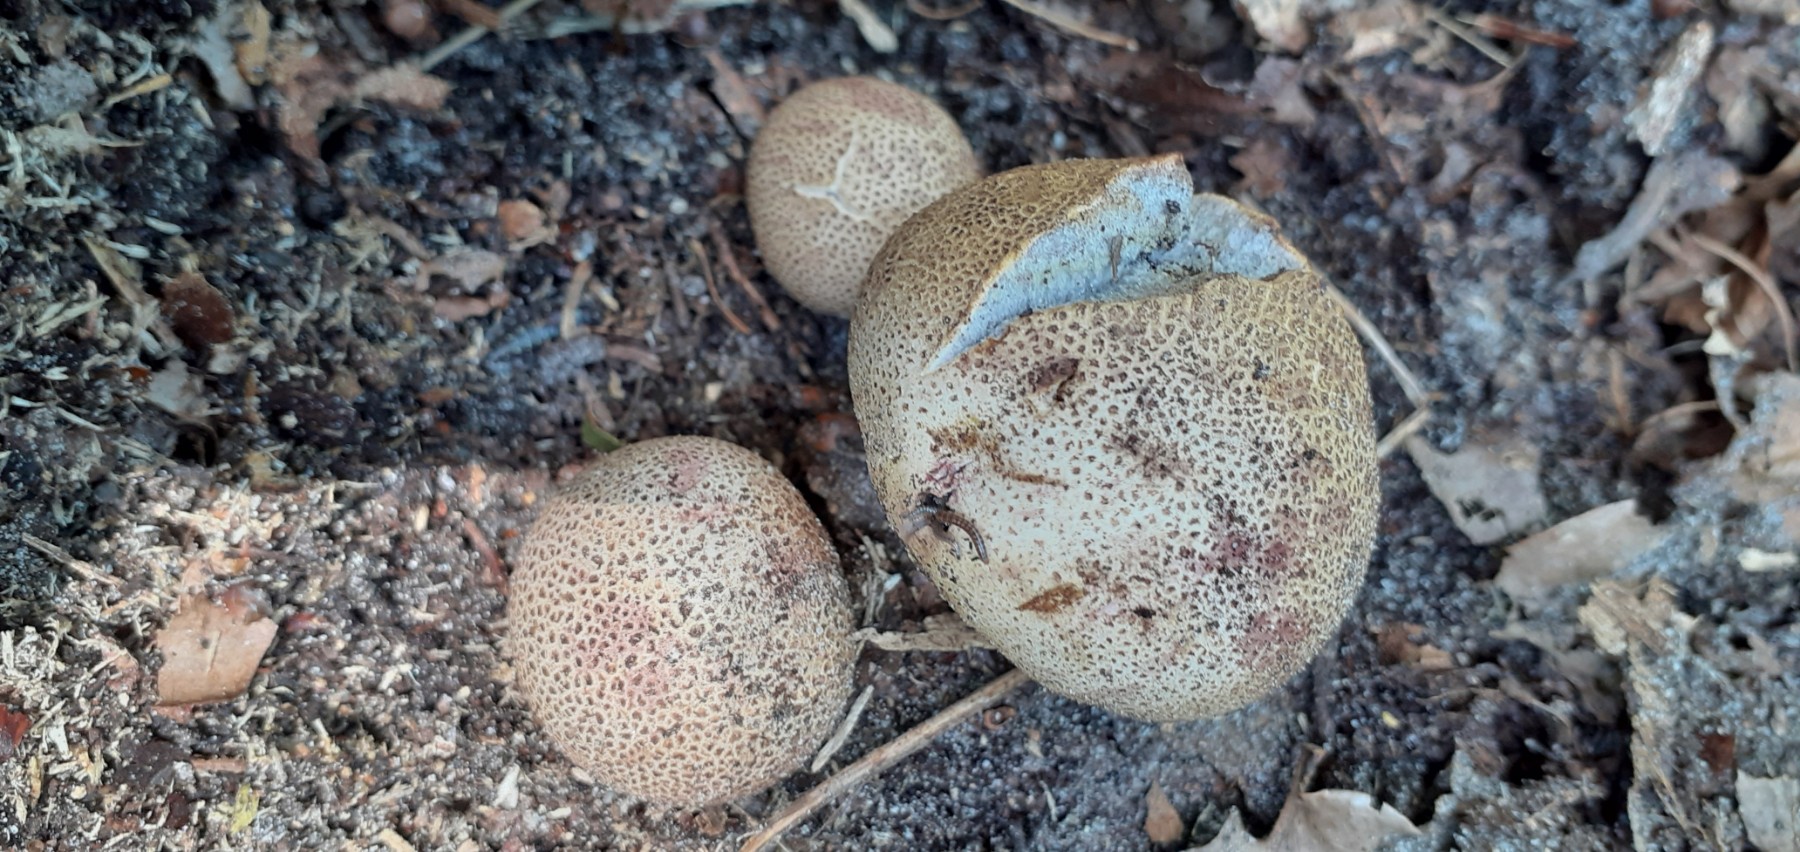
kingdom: Fungi
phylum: Basidiomycota
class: Agaricomycetes
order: Boletales
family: Sclerodermataceae
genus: Scleroderma
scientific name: Scleroderma areolatum
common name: plettet bruskbold
